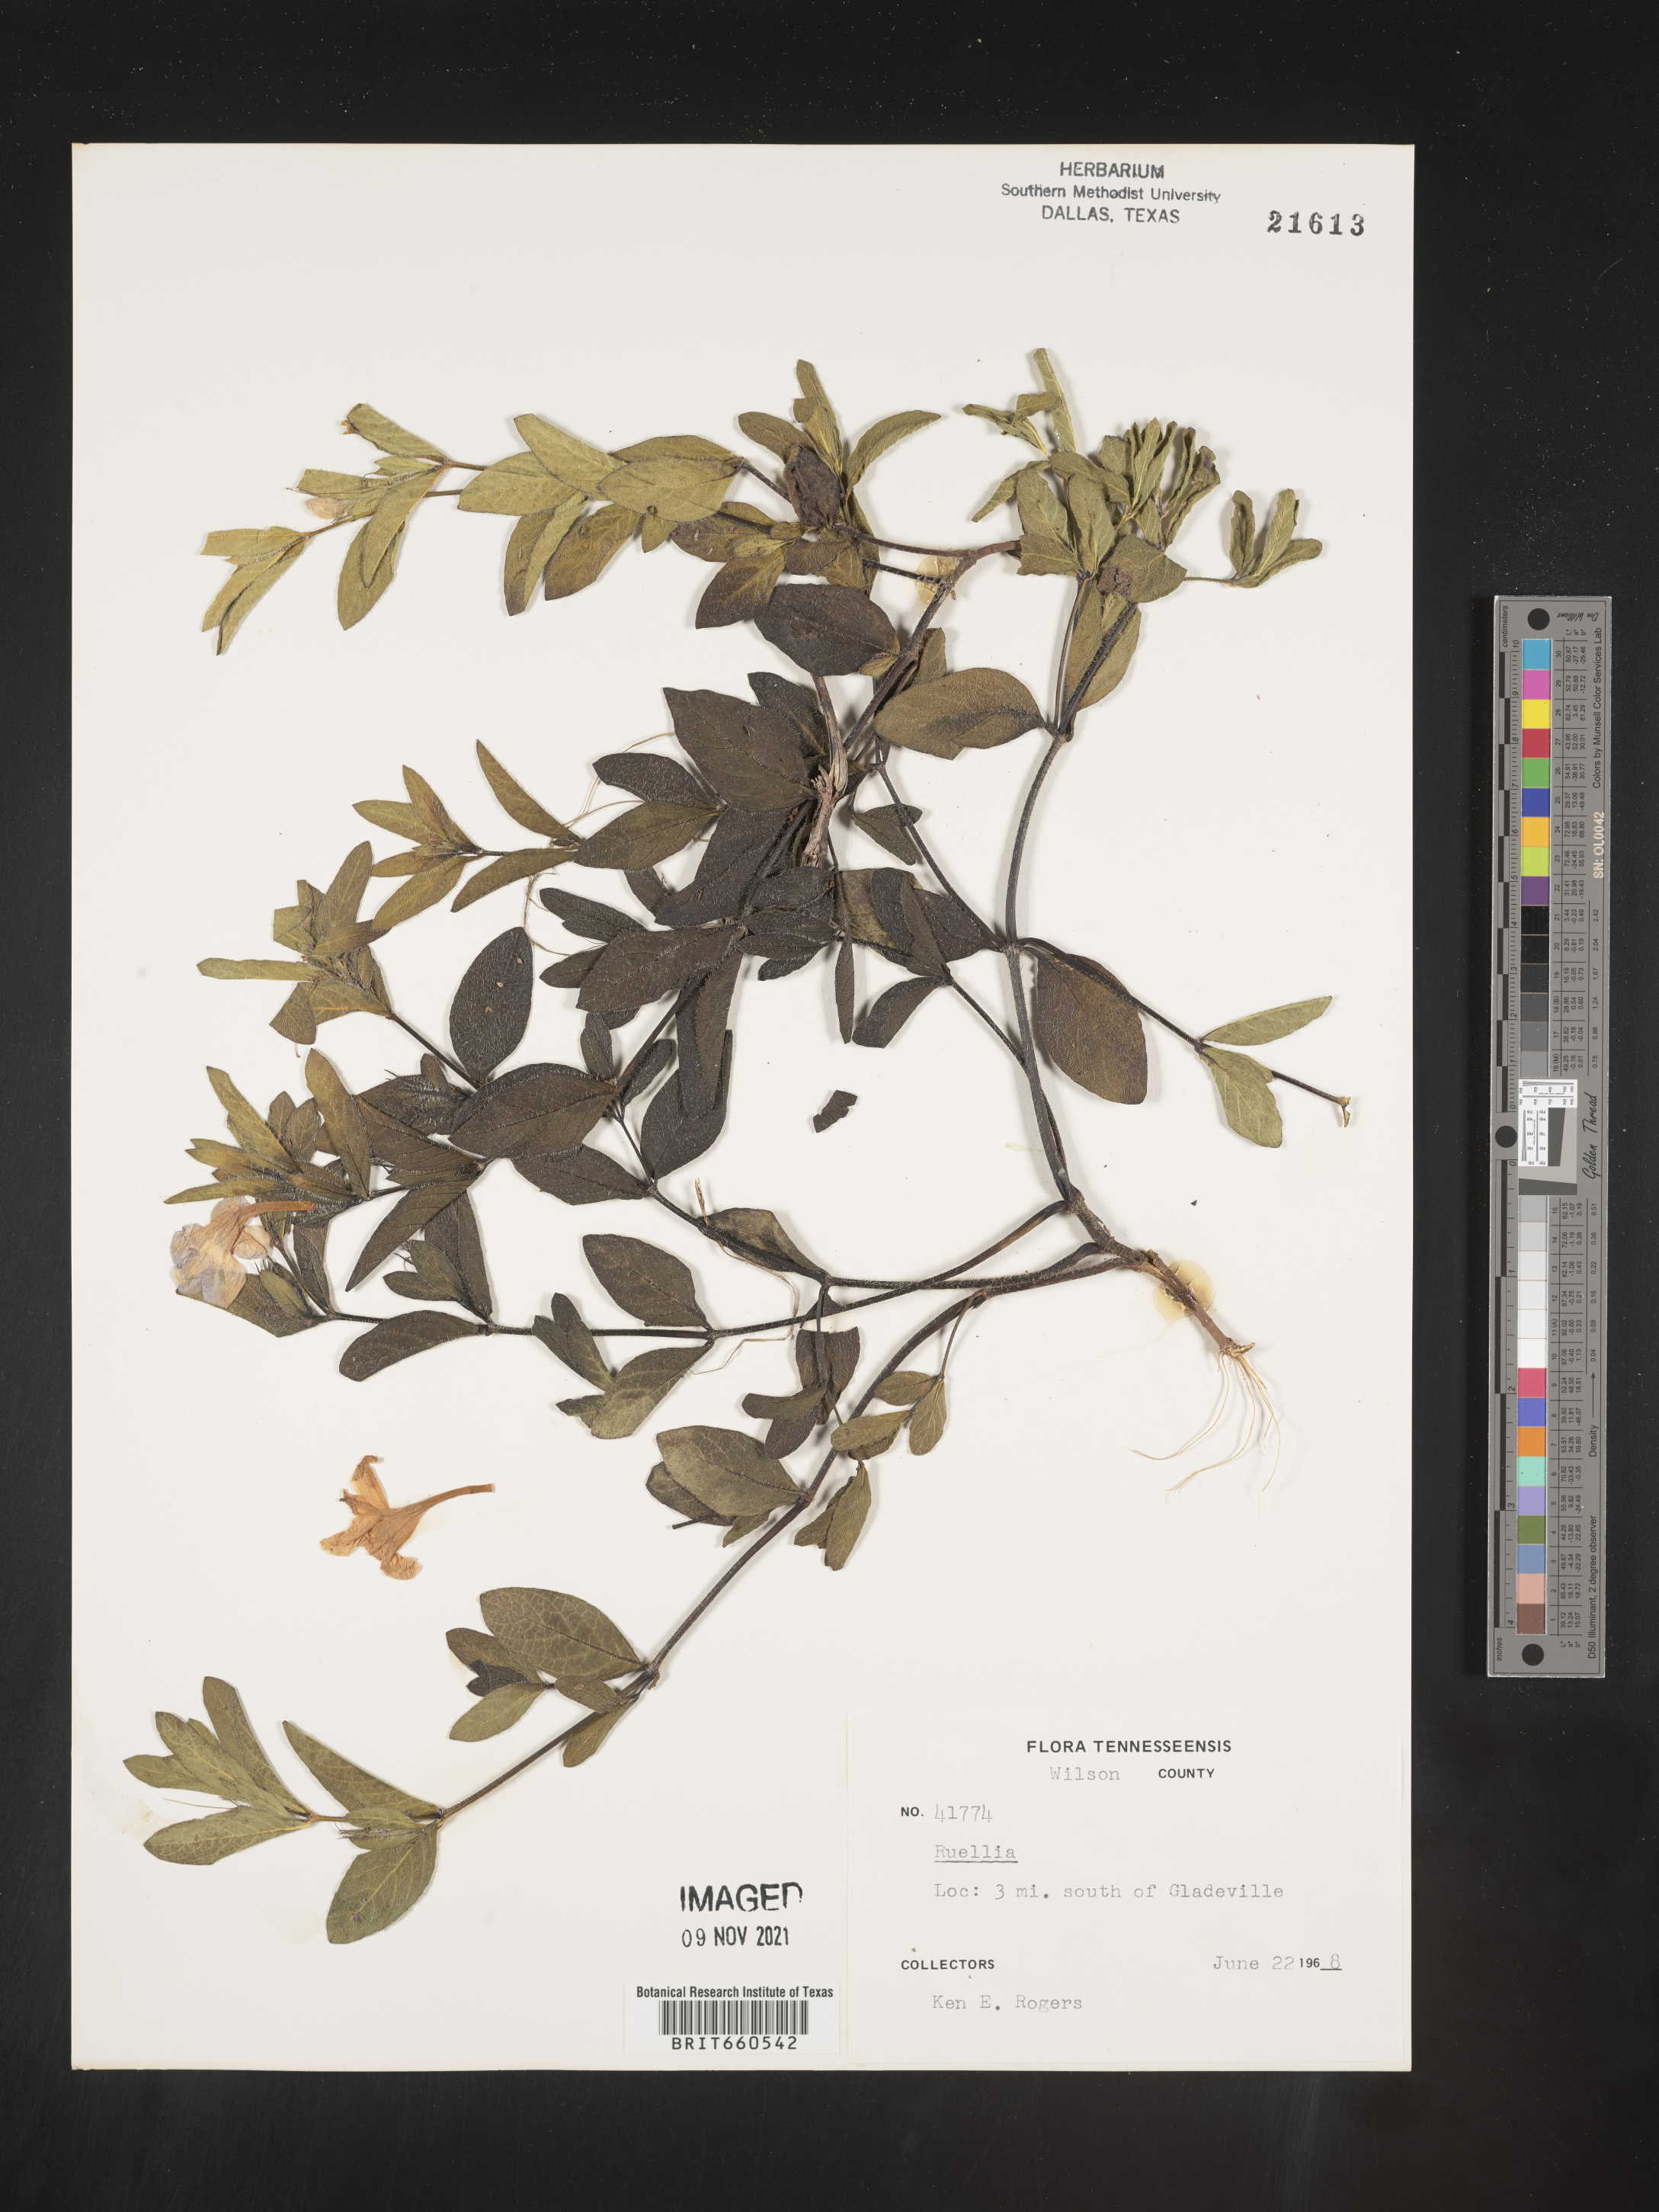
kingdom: Plantae
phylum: Tracheophyta
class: Magnoliopsida
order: Lamiales
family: Acanthaceae
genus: Ruellia
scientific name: Ruellia
